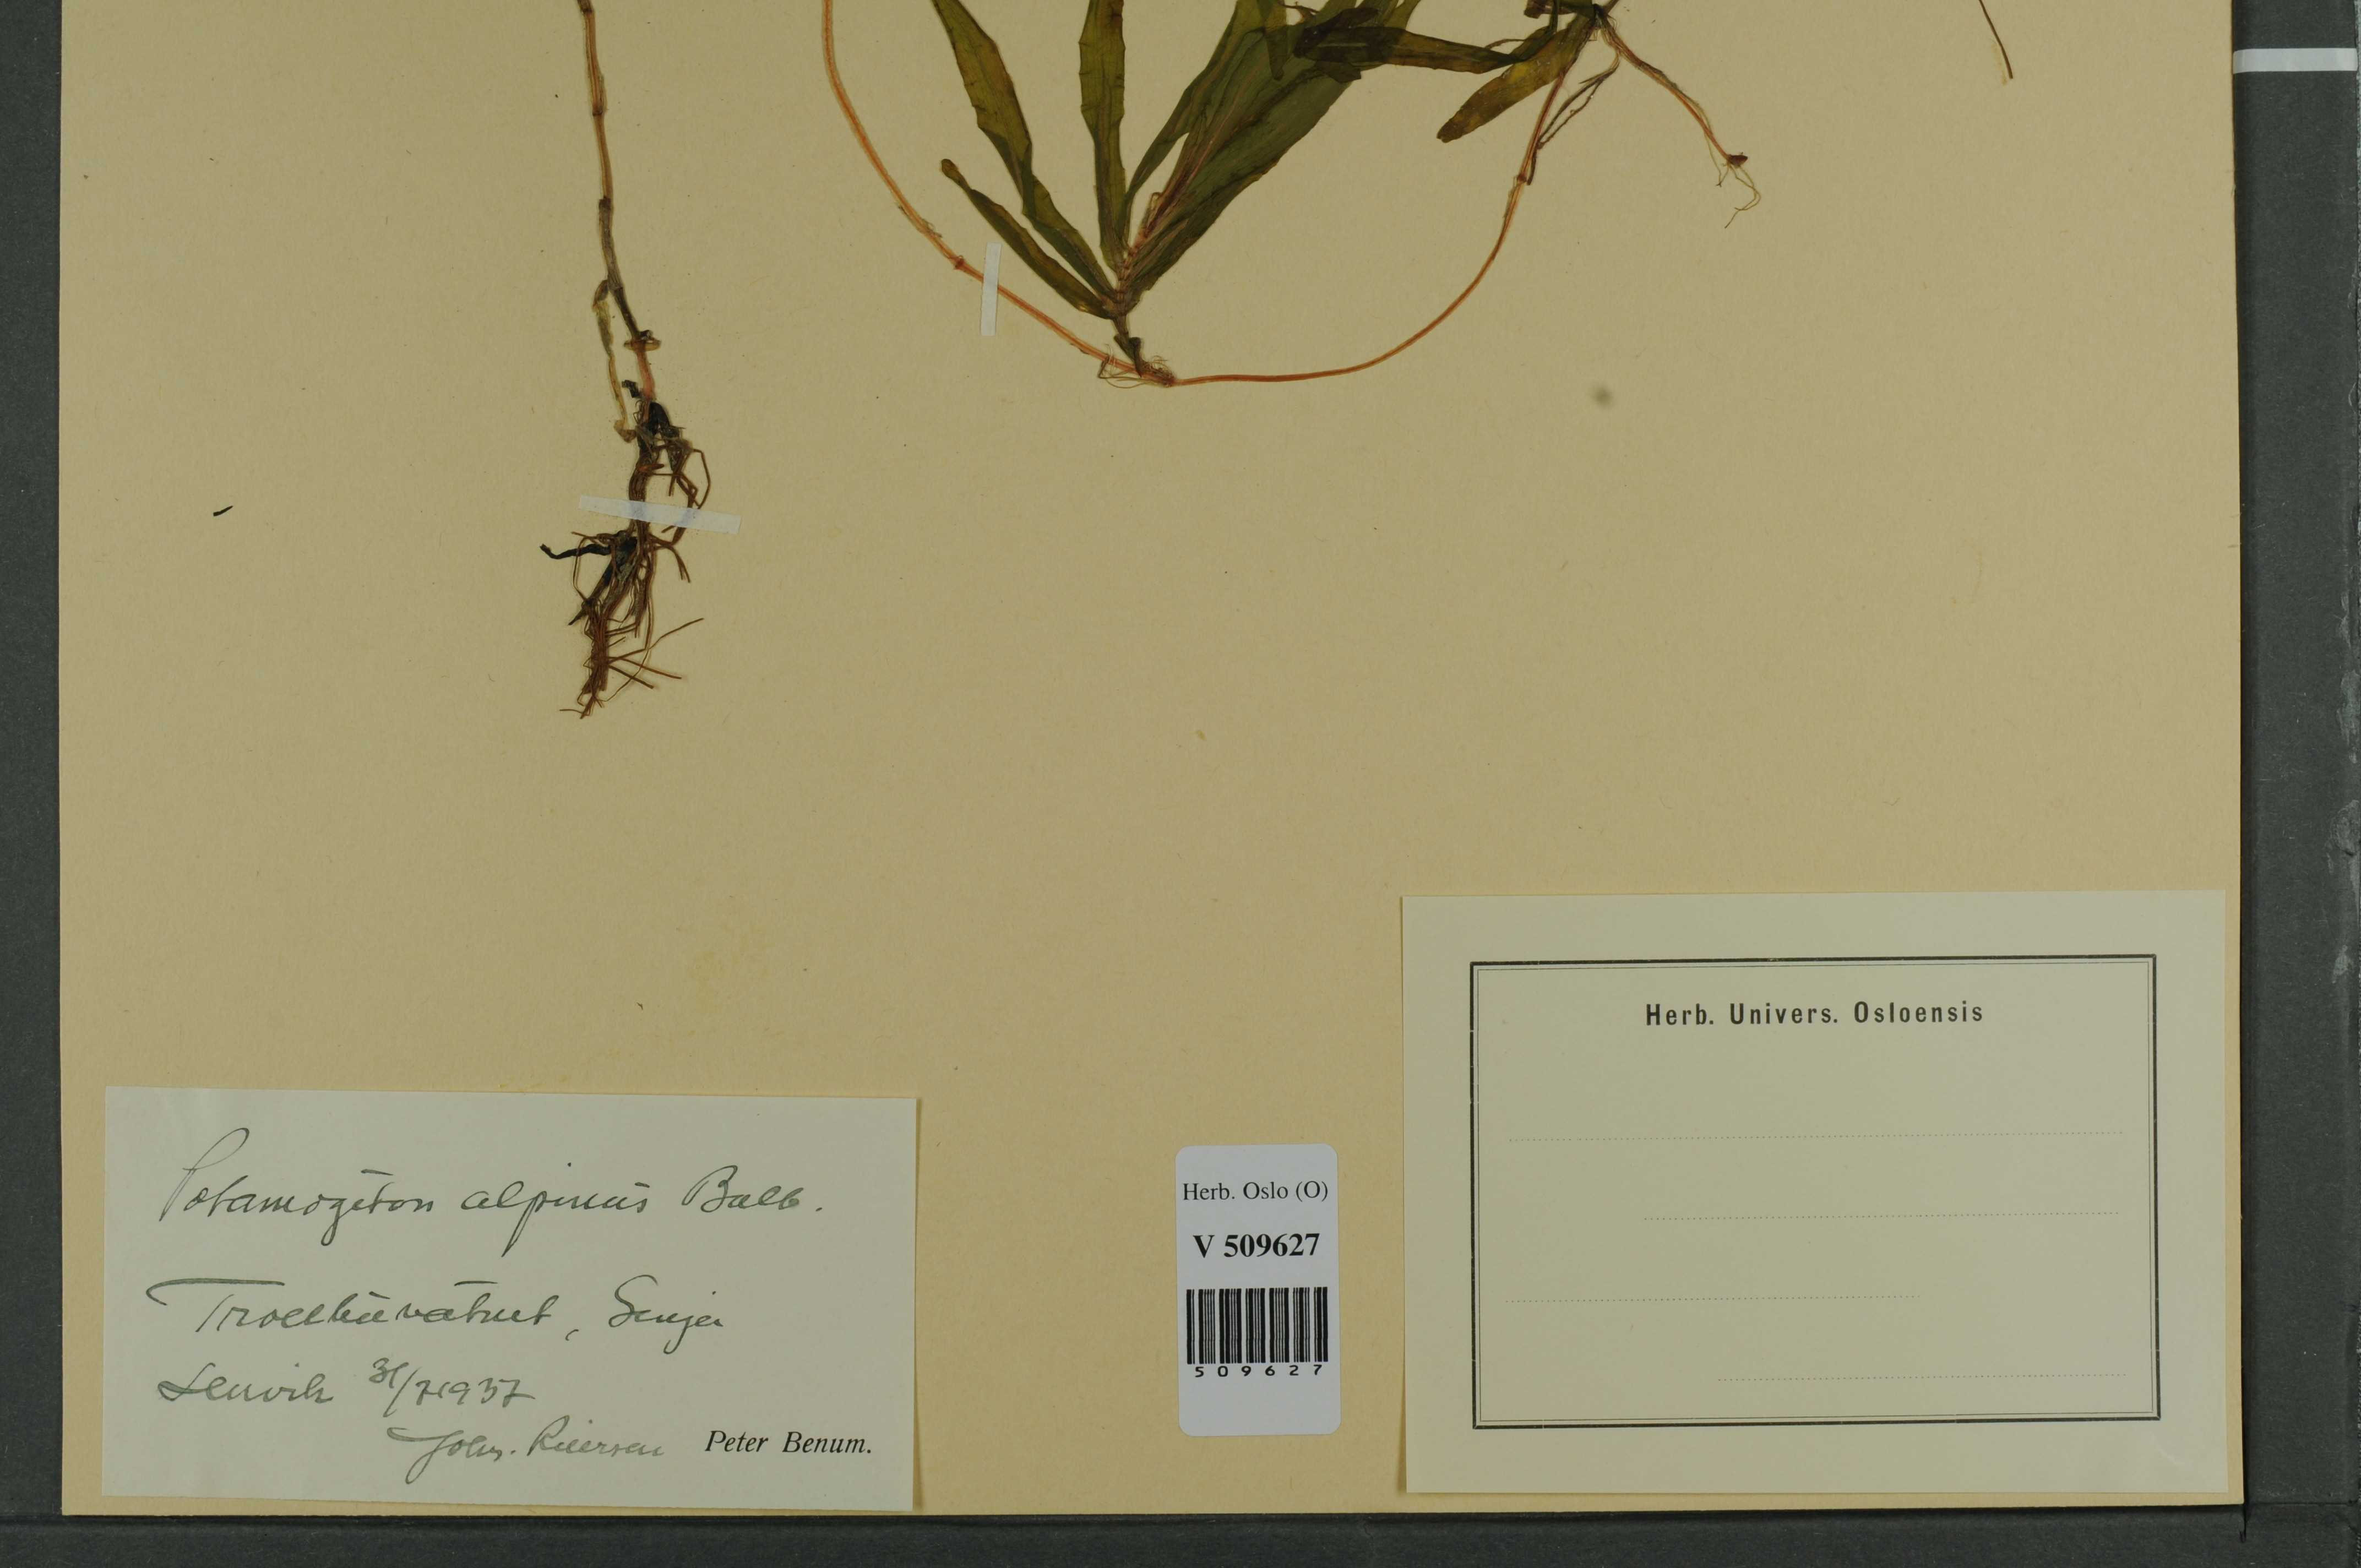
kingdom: Plantae
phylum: Tracheophyta
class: Liliopsida
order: Alismatales
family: Potamogetonaceae
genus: Potamogeton
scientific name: Potamogeton alpinus
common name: Red pondweed
